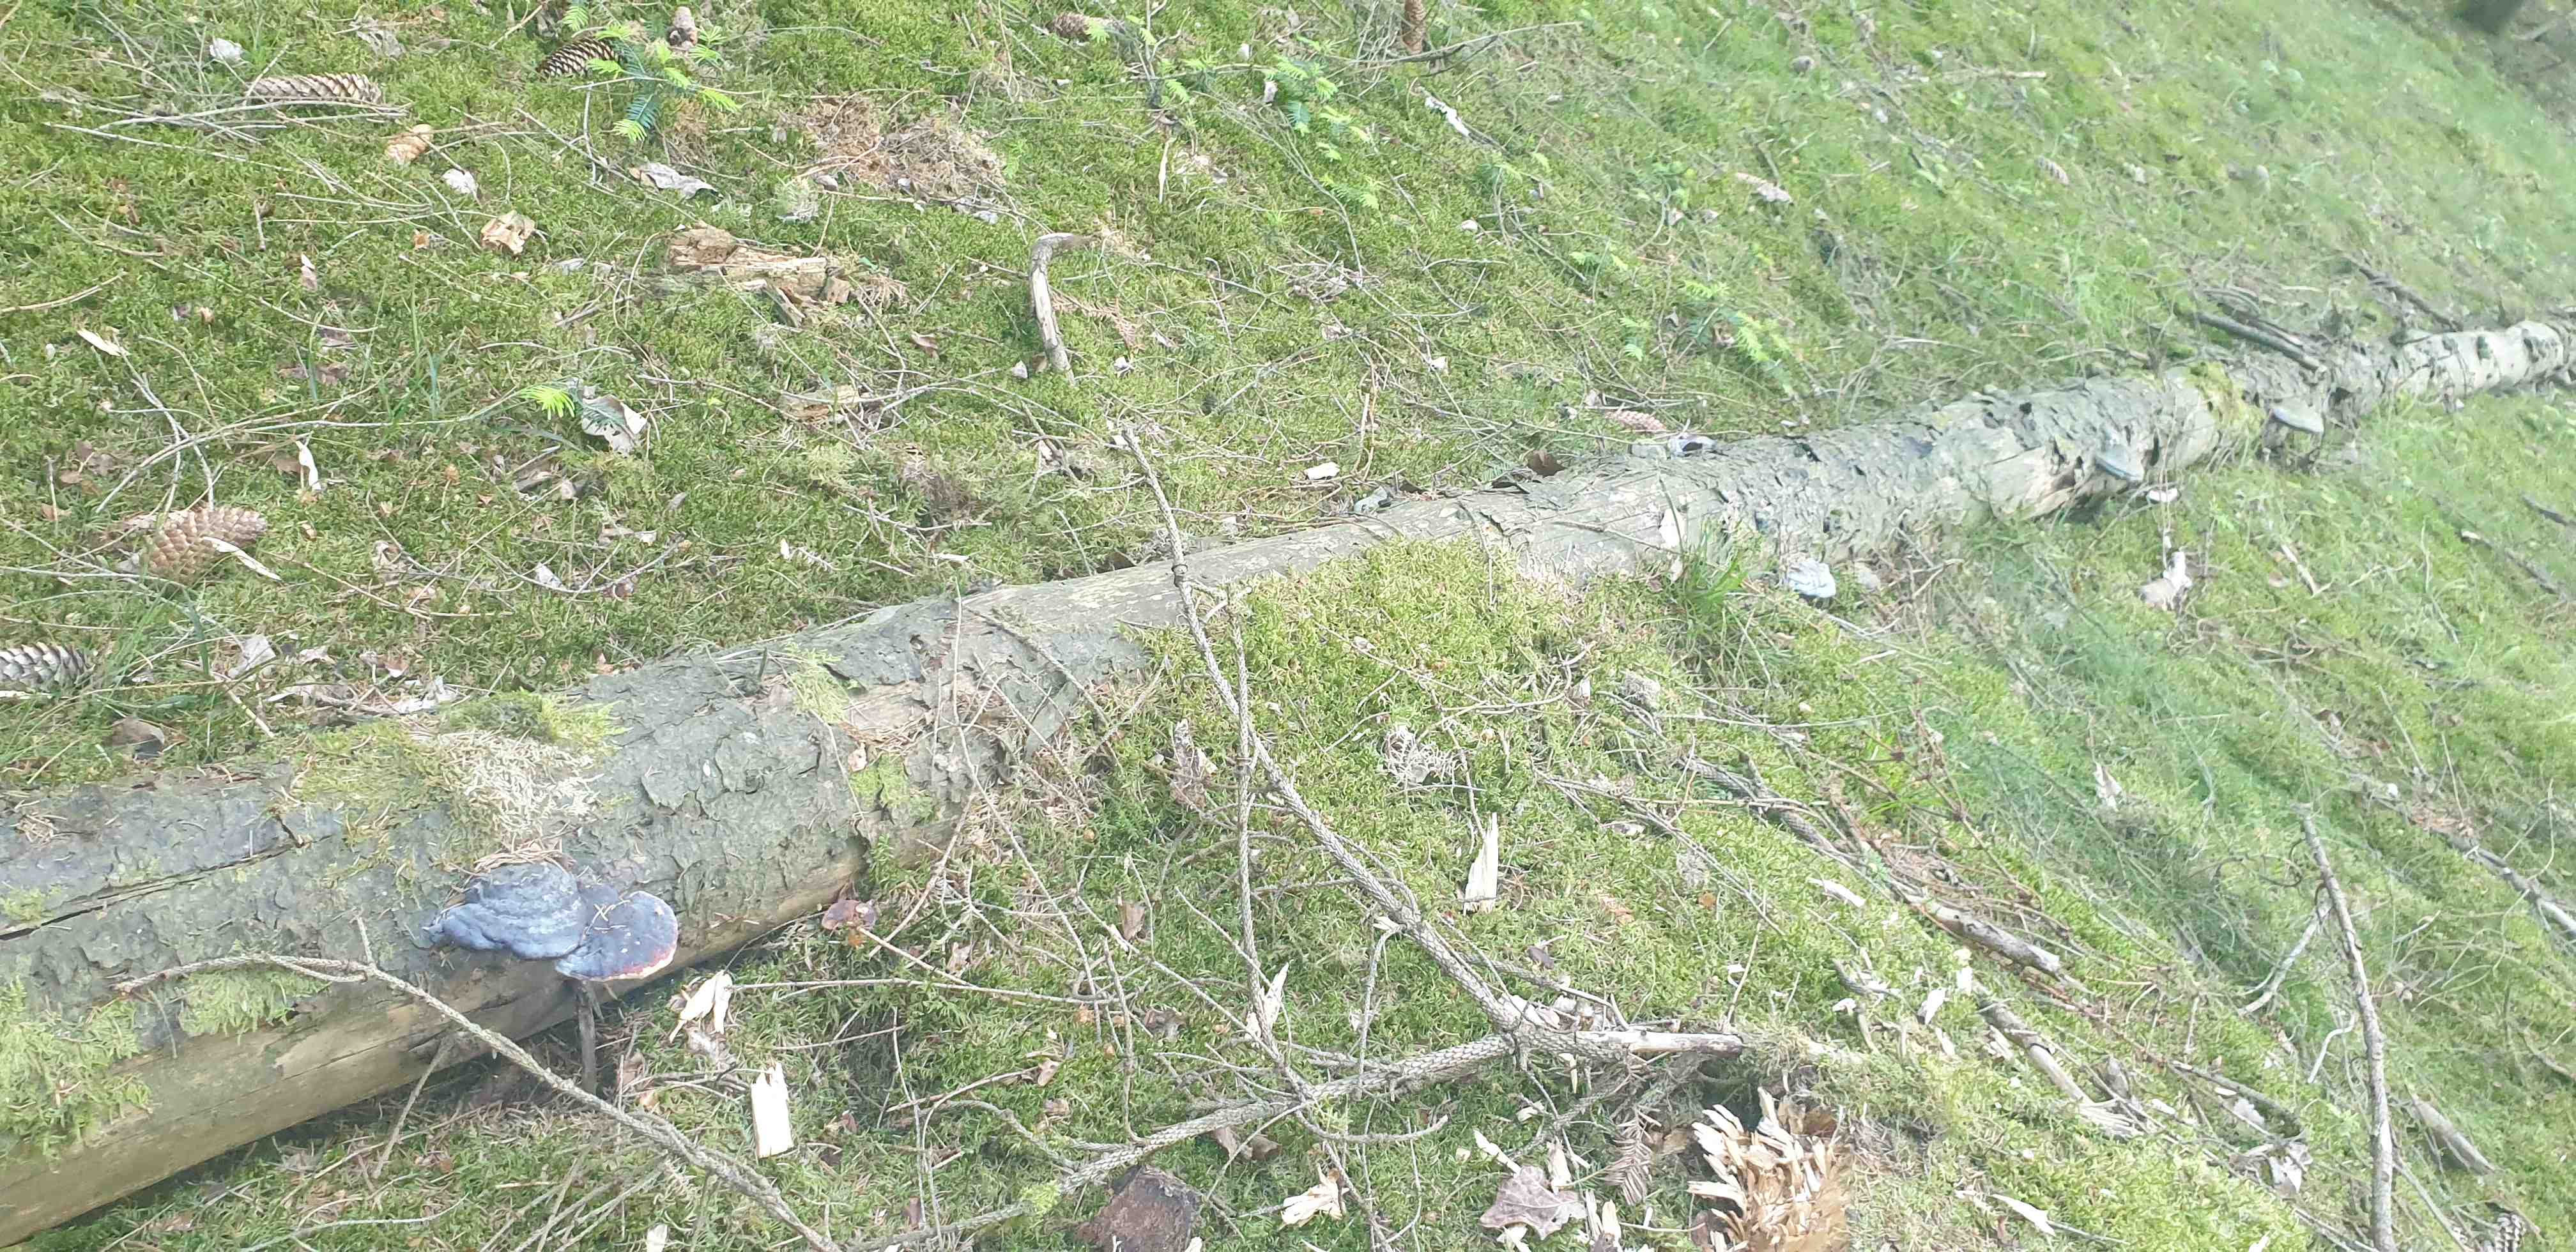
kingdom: Fungi
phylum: Basidiomycota
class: Agaricomycetes
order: Polyporales
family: Fomitopsidaceae
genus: Fomitopsis
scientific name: Fomitopsis pinicola
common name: randbæltet hovporesvamp
